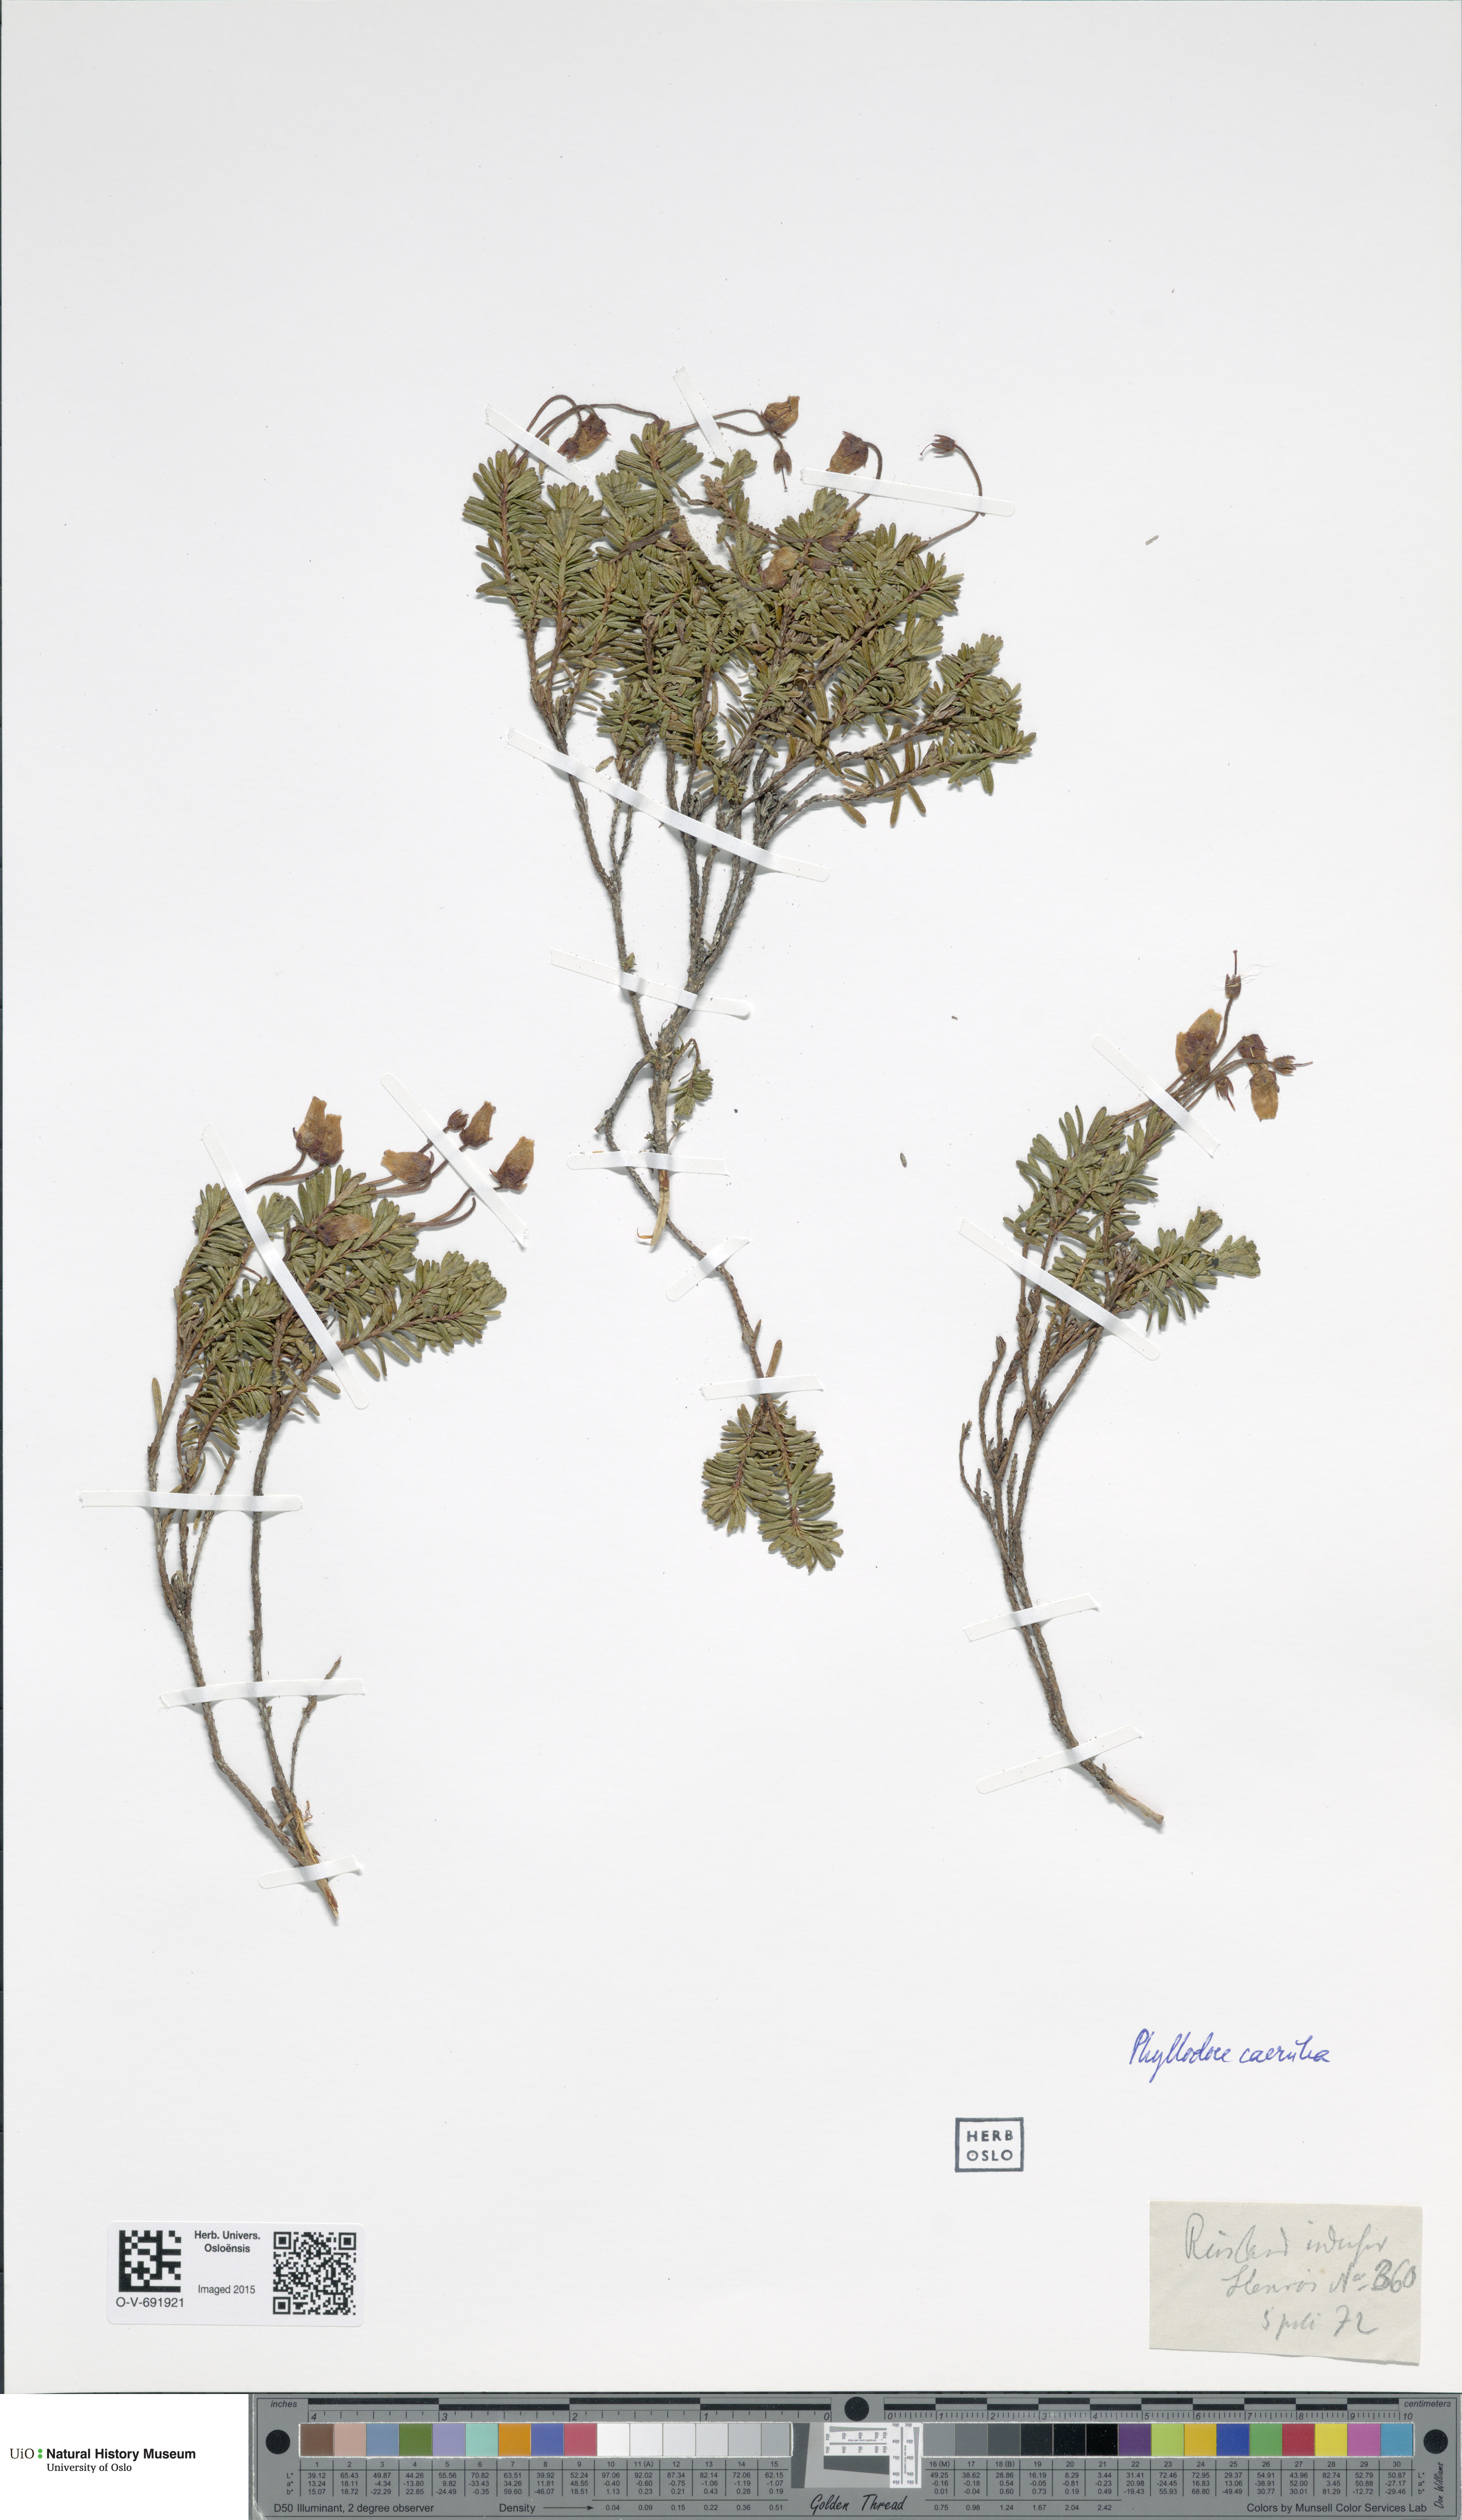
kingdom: Plantae
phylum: Tracheophyta
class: Magnoliopsida
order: Ericales
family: Ericaceae
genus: Phyllodoce
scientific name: Phyllodoce caerulea
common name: Blue heath
